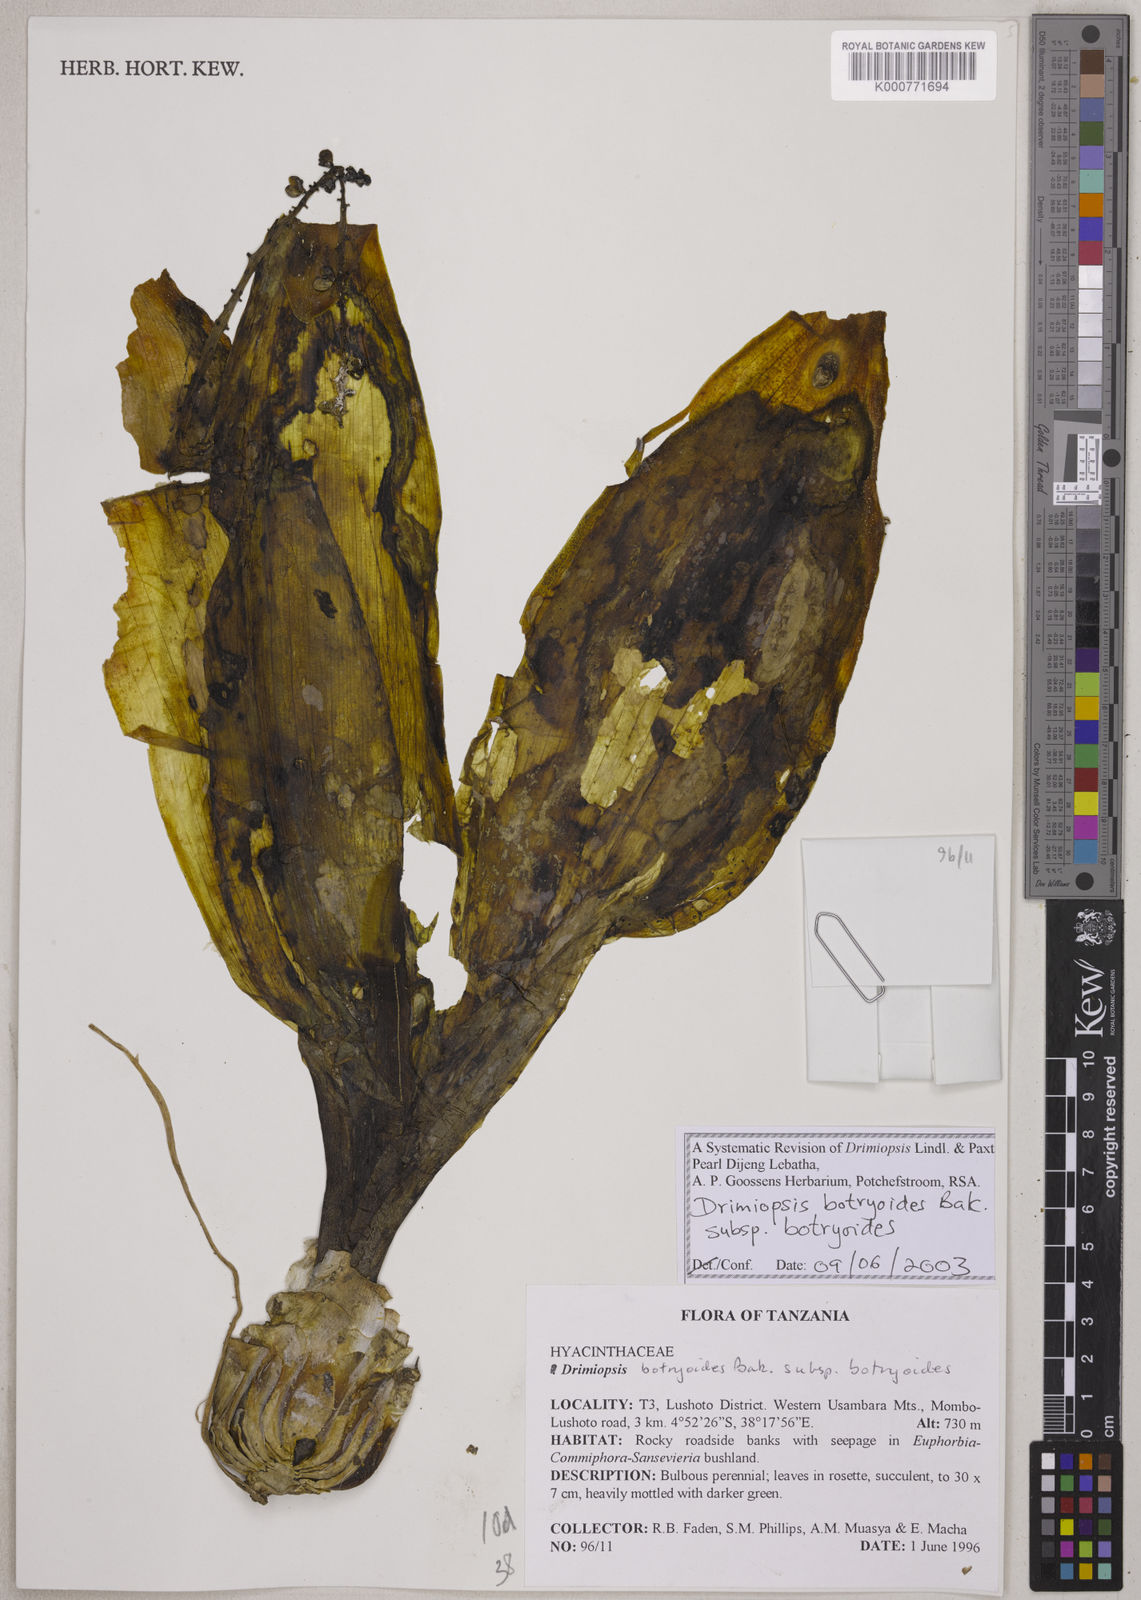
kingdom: Plantae
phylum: Tracheophyta
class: Liliopsida
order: Asparagales
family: Asparagaceae
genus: Drimiopsis
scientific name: Drimiopsis botryoides
